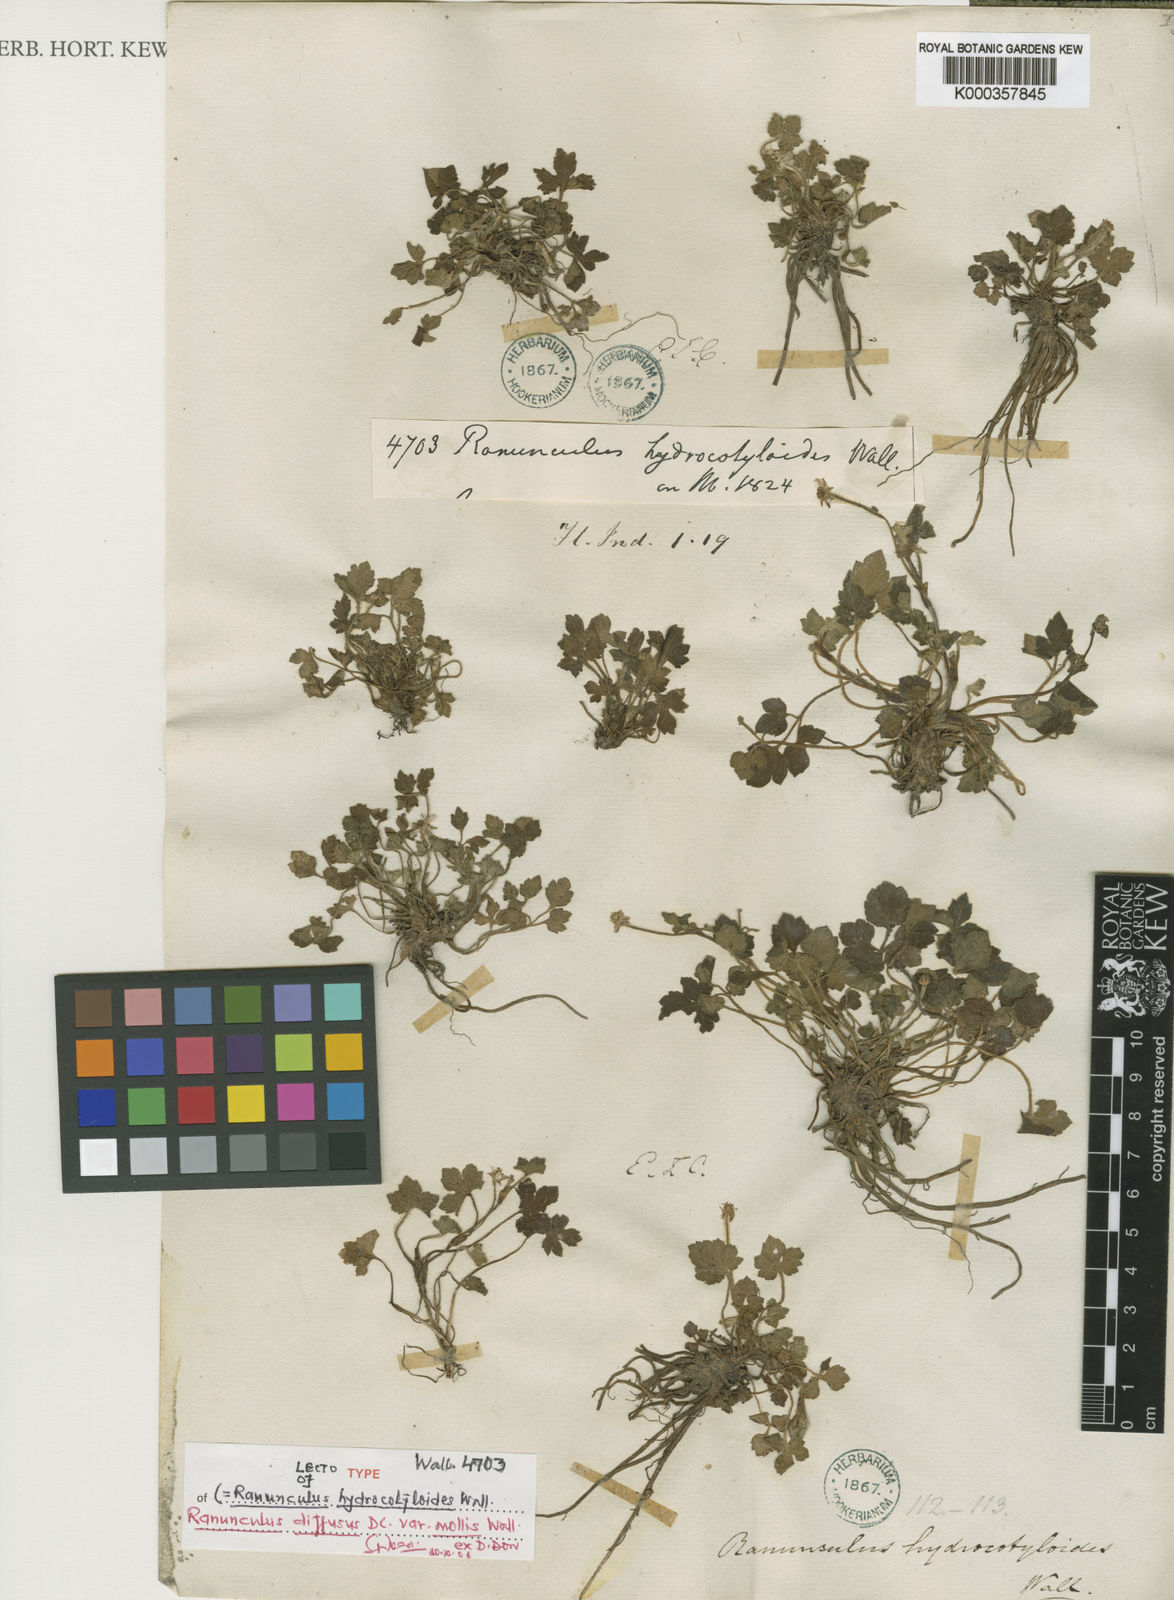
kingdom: Plantae
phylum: Tracheophyta
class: Magnoliopsida
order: Ranunculales
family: Ranunculaceae
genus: Ranunculus
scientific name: Ranunculus diffusus
